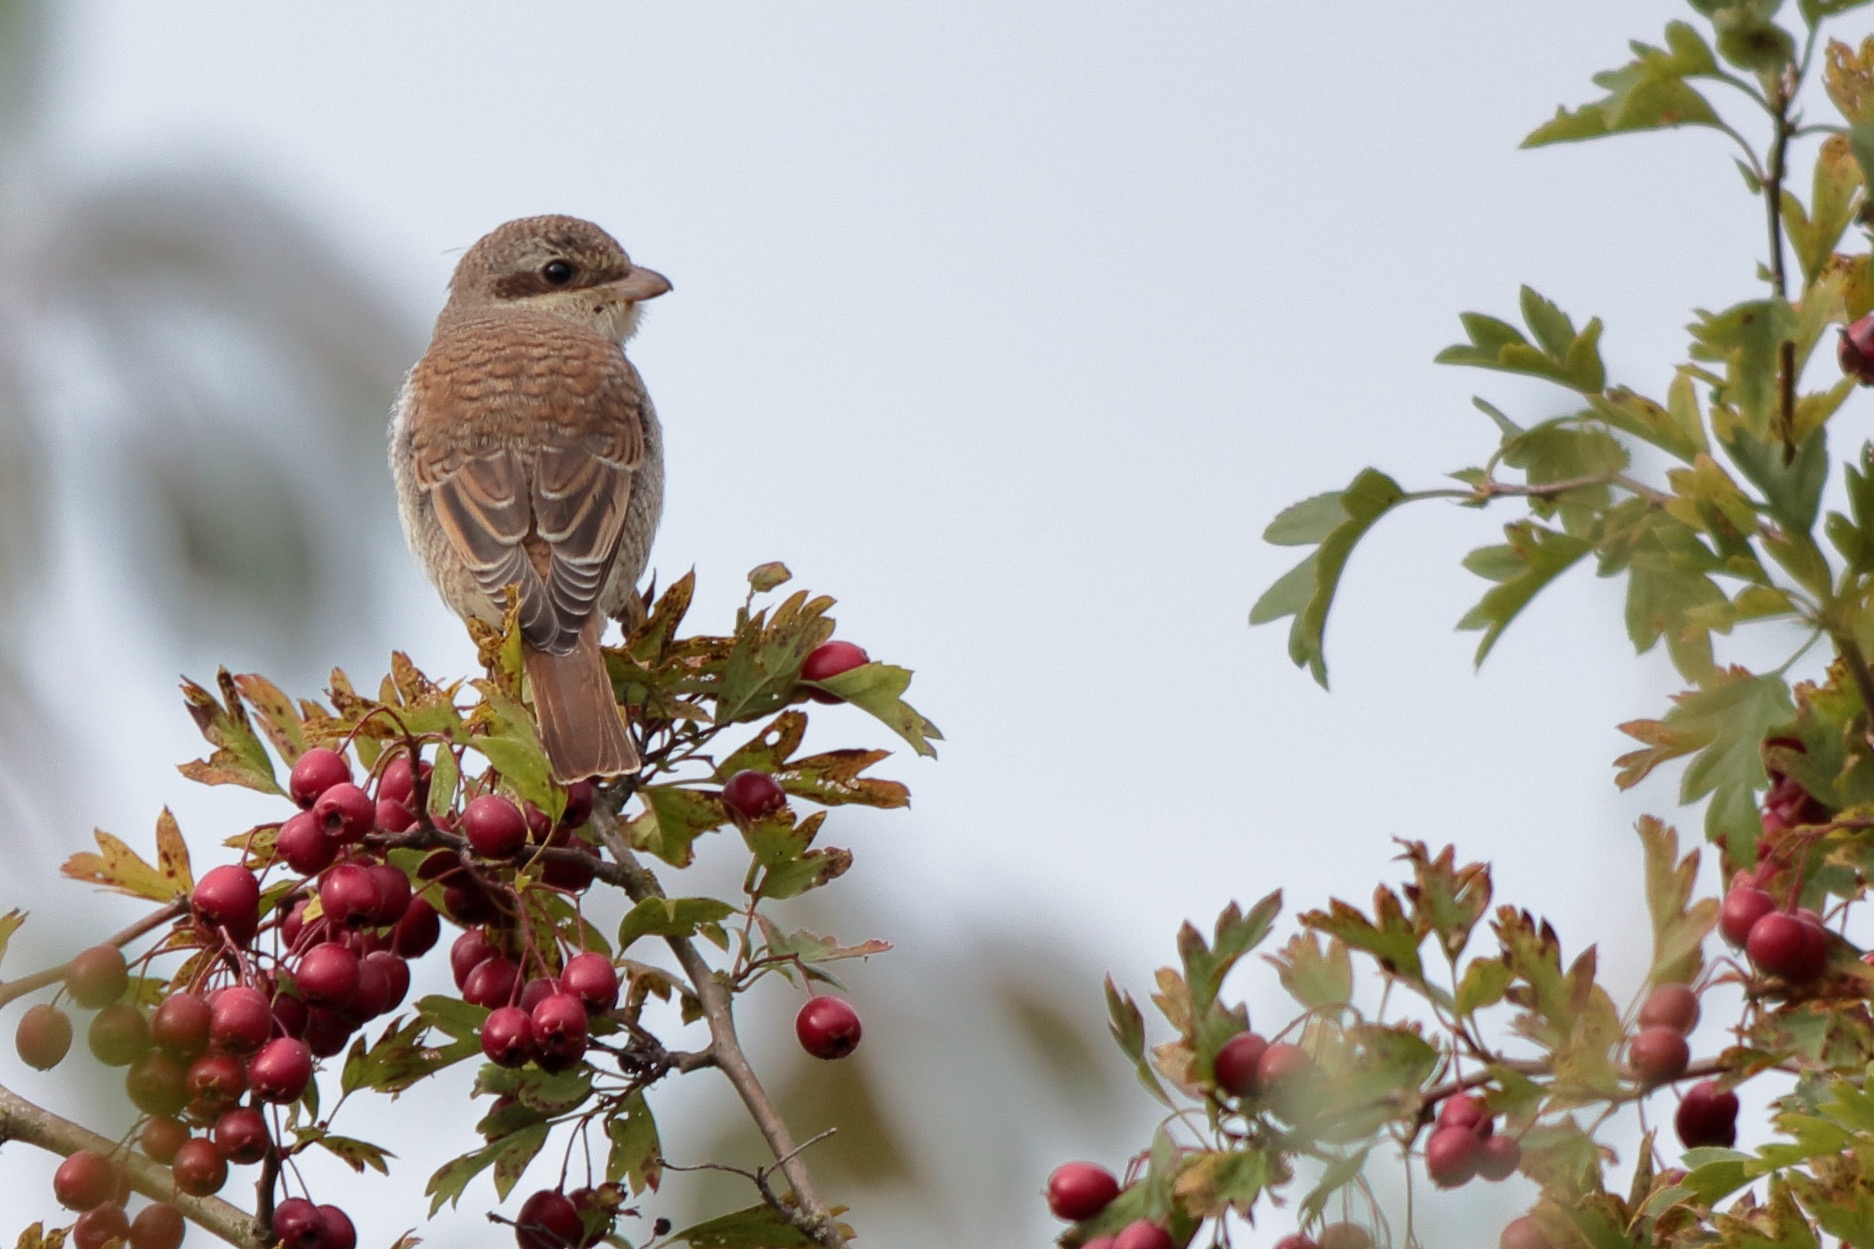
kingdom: Animalia
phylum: Chordata
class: Aves
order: Passeriformes
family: Laniidae
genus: Lanius
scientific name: Lanius collurio
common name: Rødrygget tornskade
